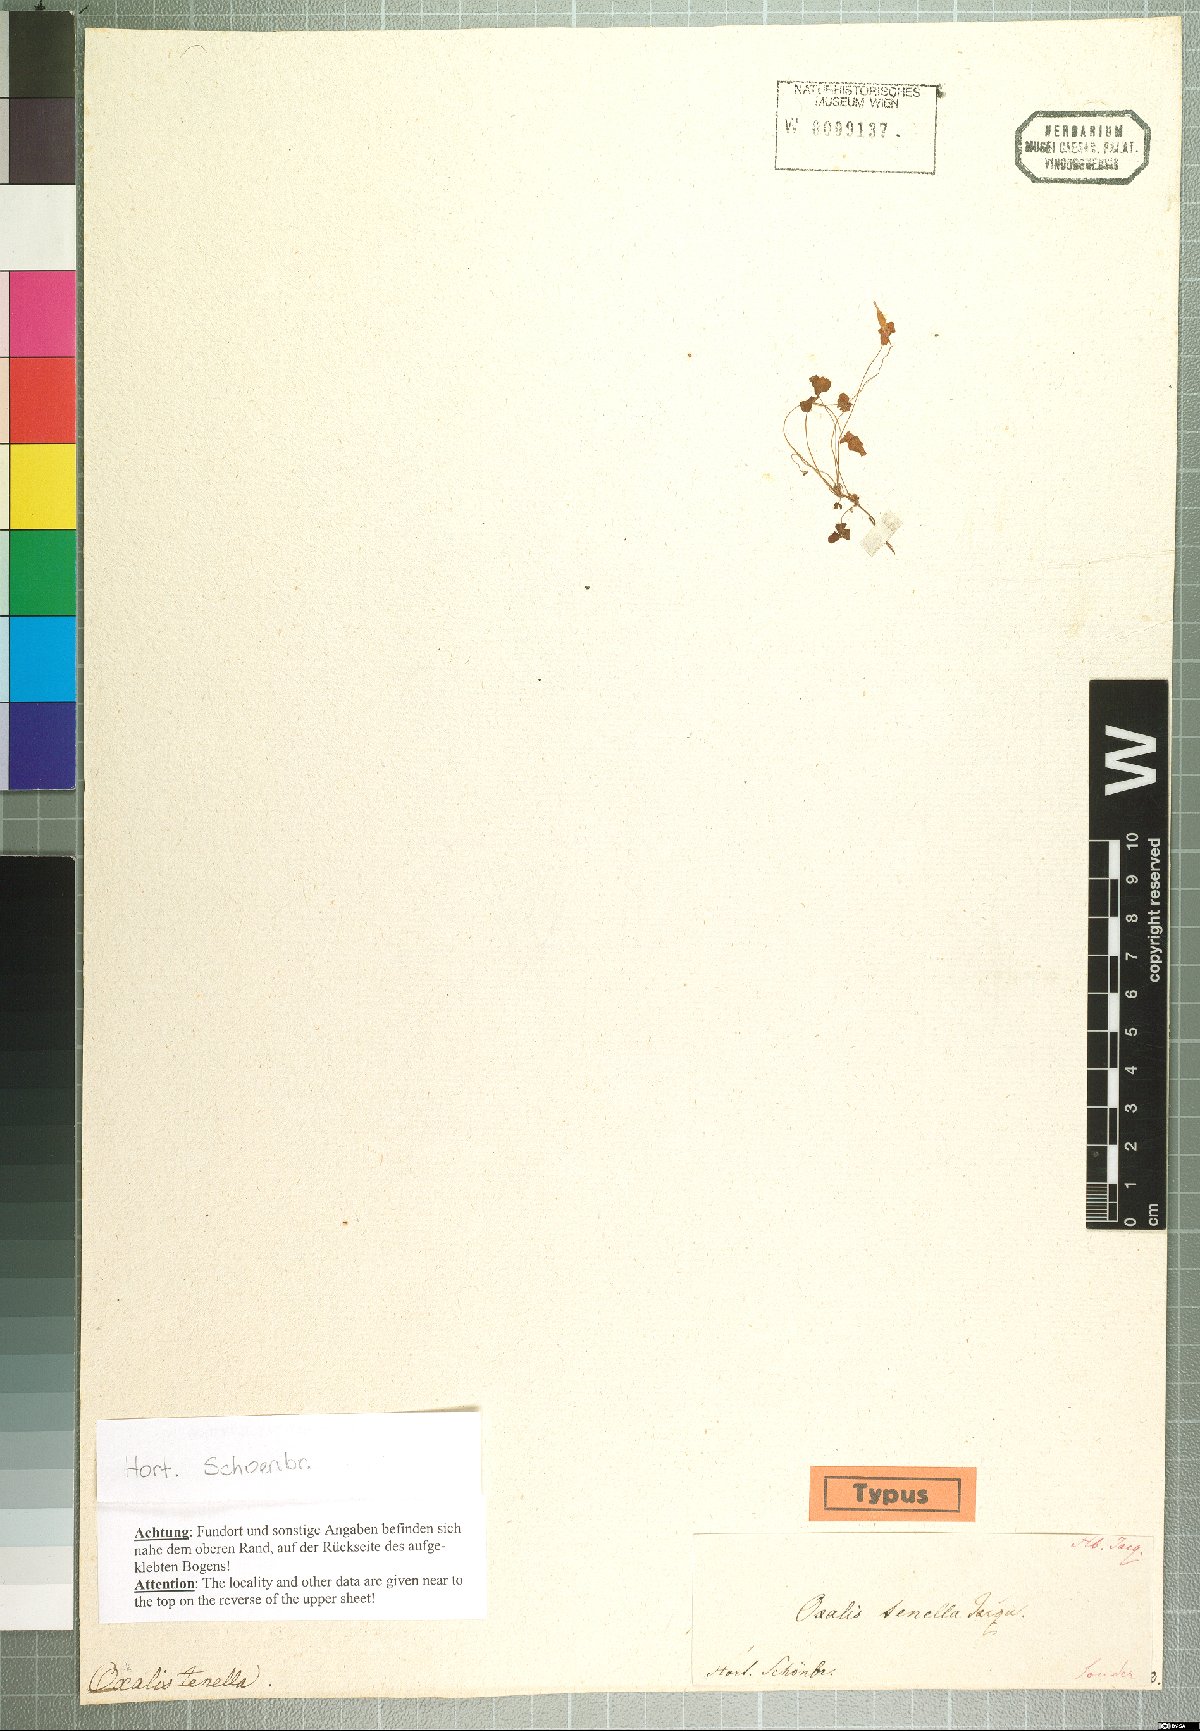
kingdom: Plantae
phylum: Tracheophyta
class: Magnoliopsida
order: Oxalidales
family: Oxalidaceae
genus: Oxalis
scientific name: Oxalis tenella
